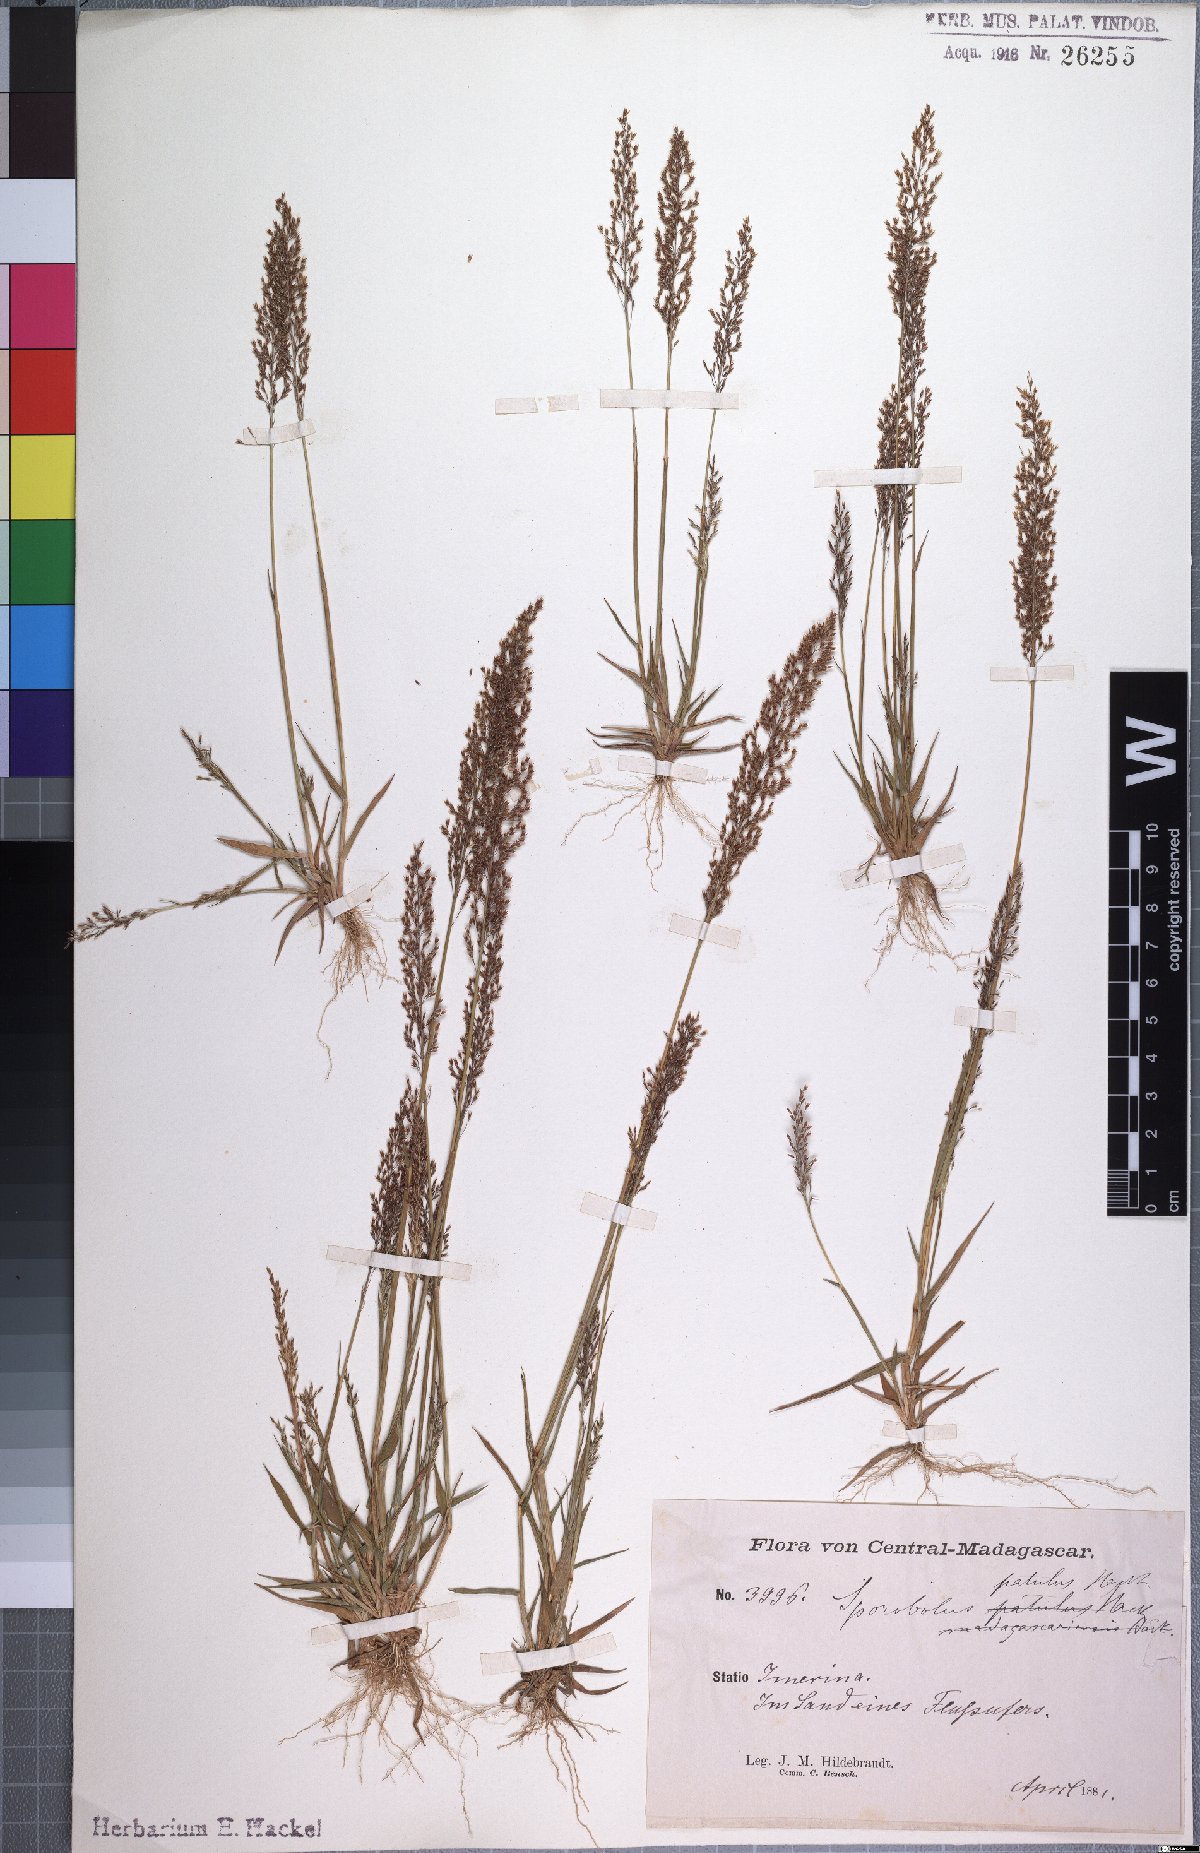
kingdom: Plantae
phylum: Tracheophyta
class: Liliopsida
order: Poales
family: Poaceae
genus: Sporobolus
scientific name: Sporobolus paniculatus
